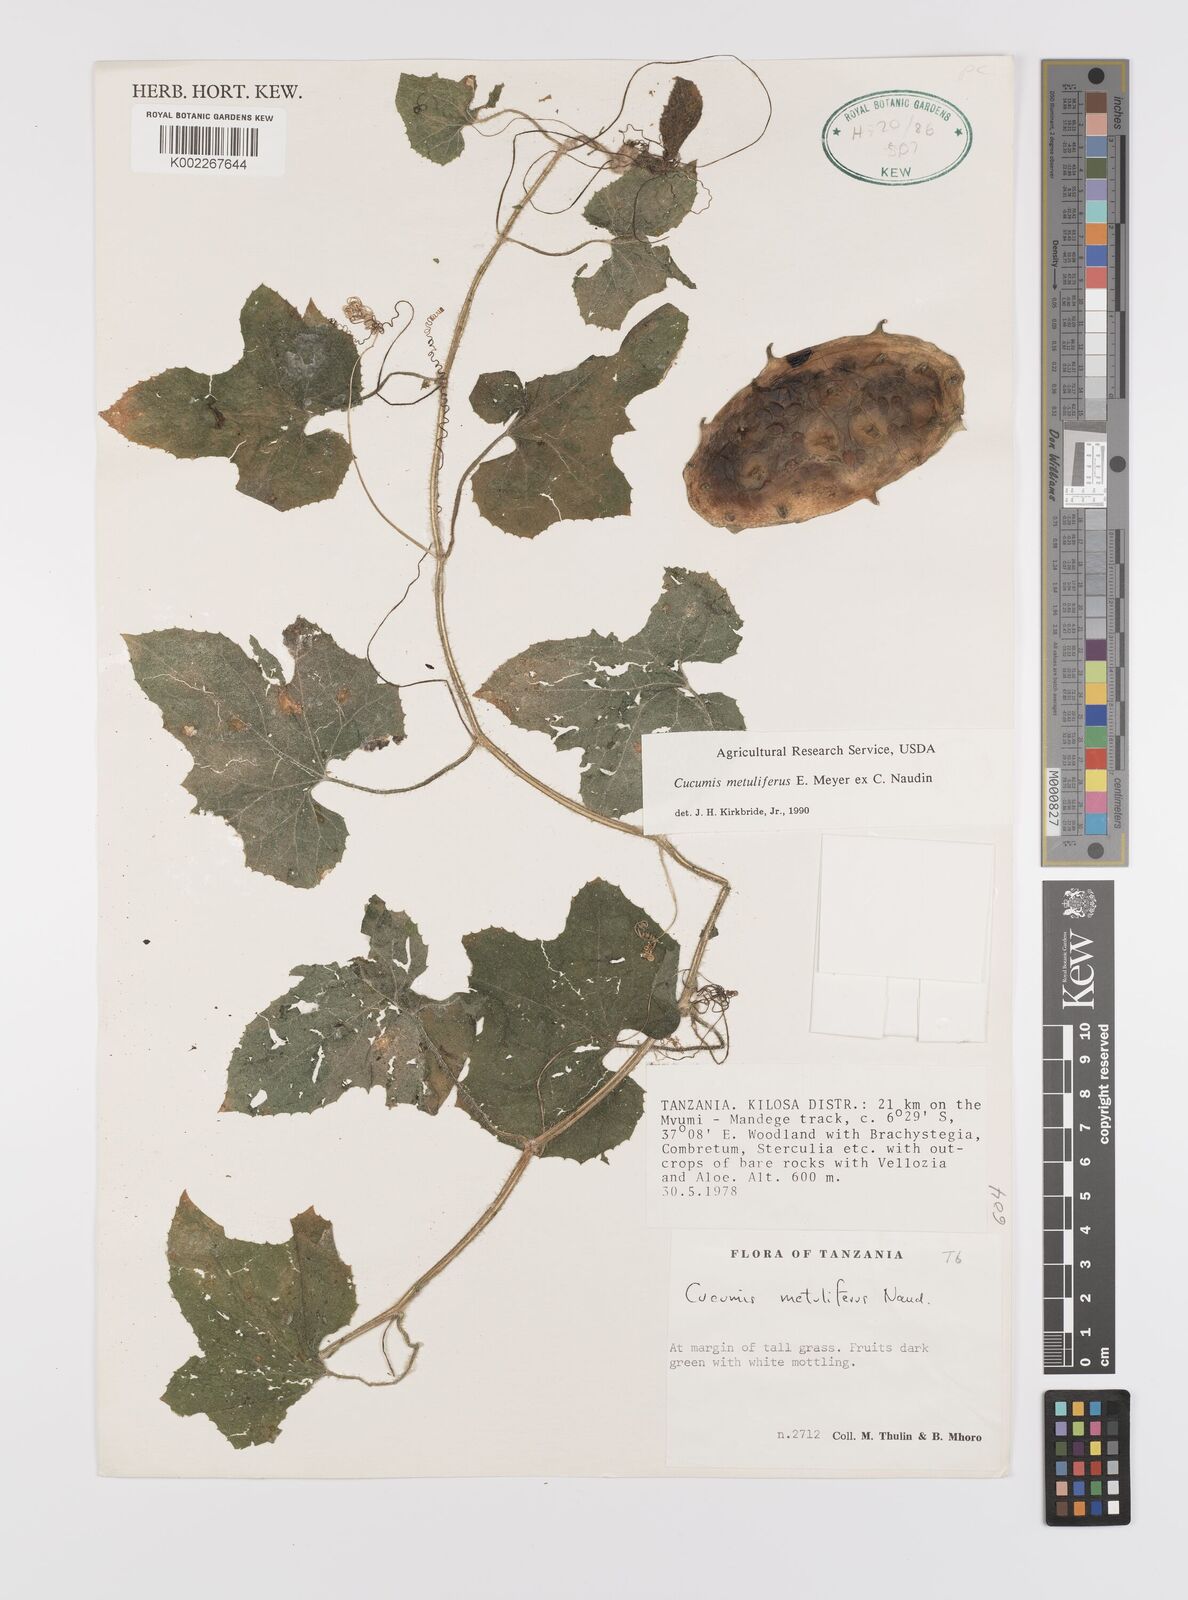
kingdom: Plantae
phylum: Tracheophyta
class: Magnoliopsida
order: Cucurbitales
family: Cucurbitaceae
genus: Cucumis
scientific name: Cucumis metuliferus
